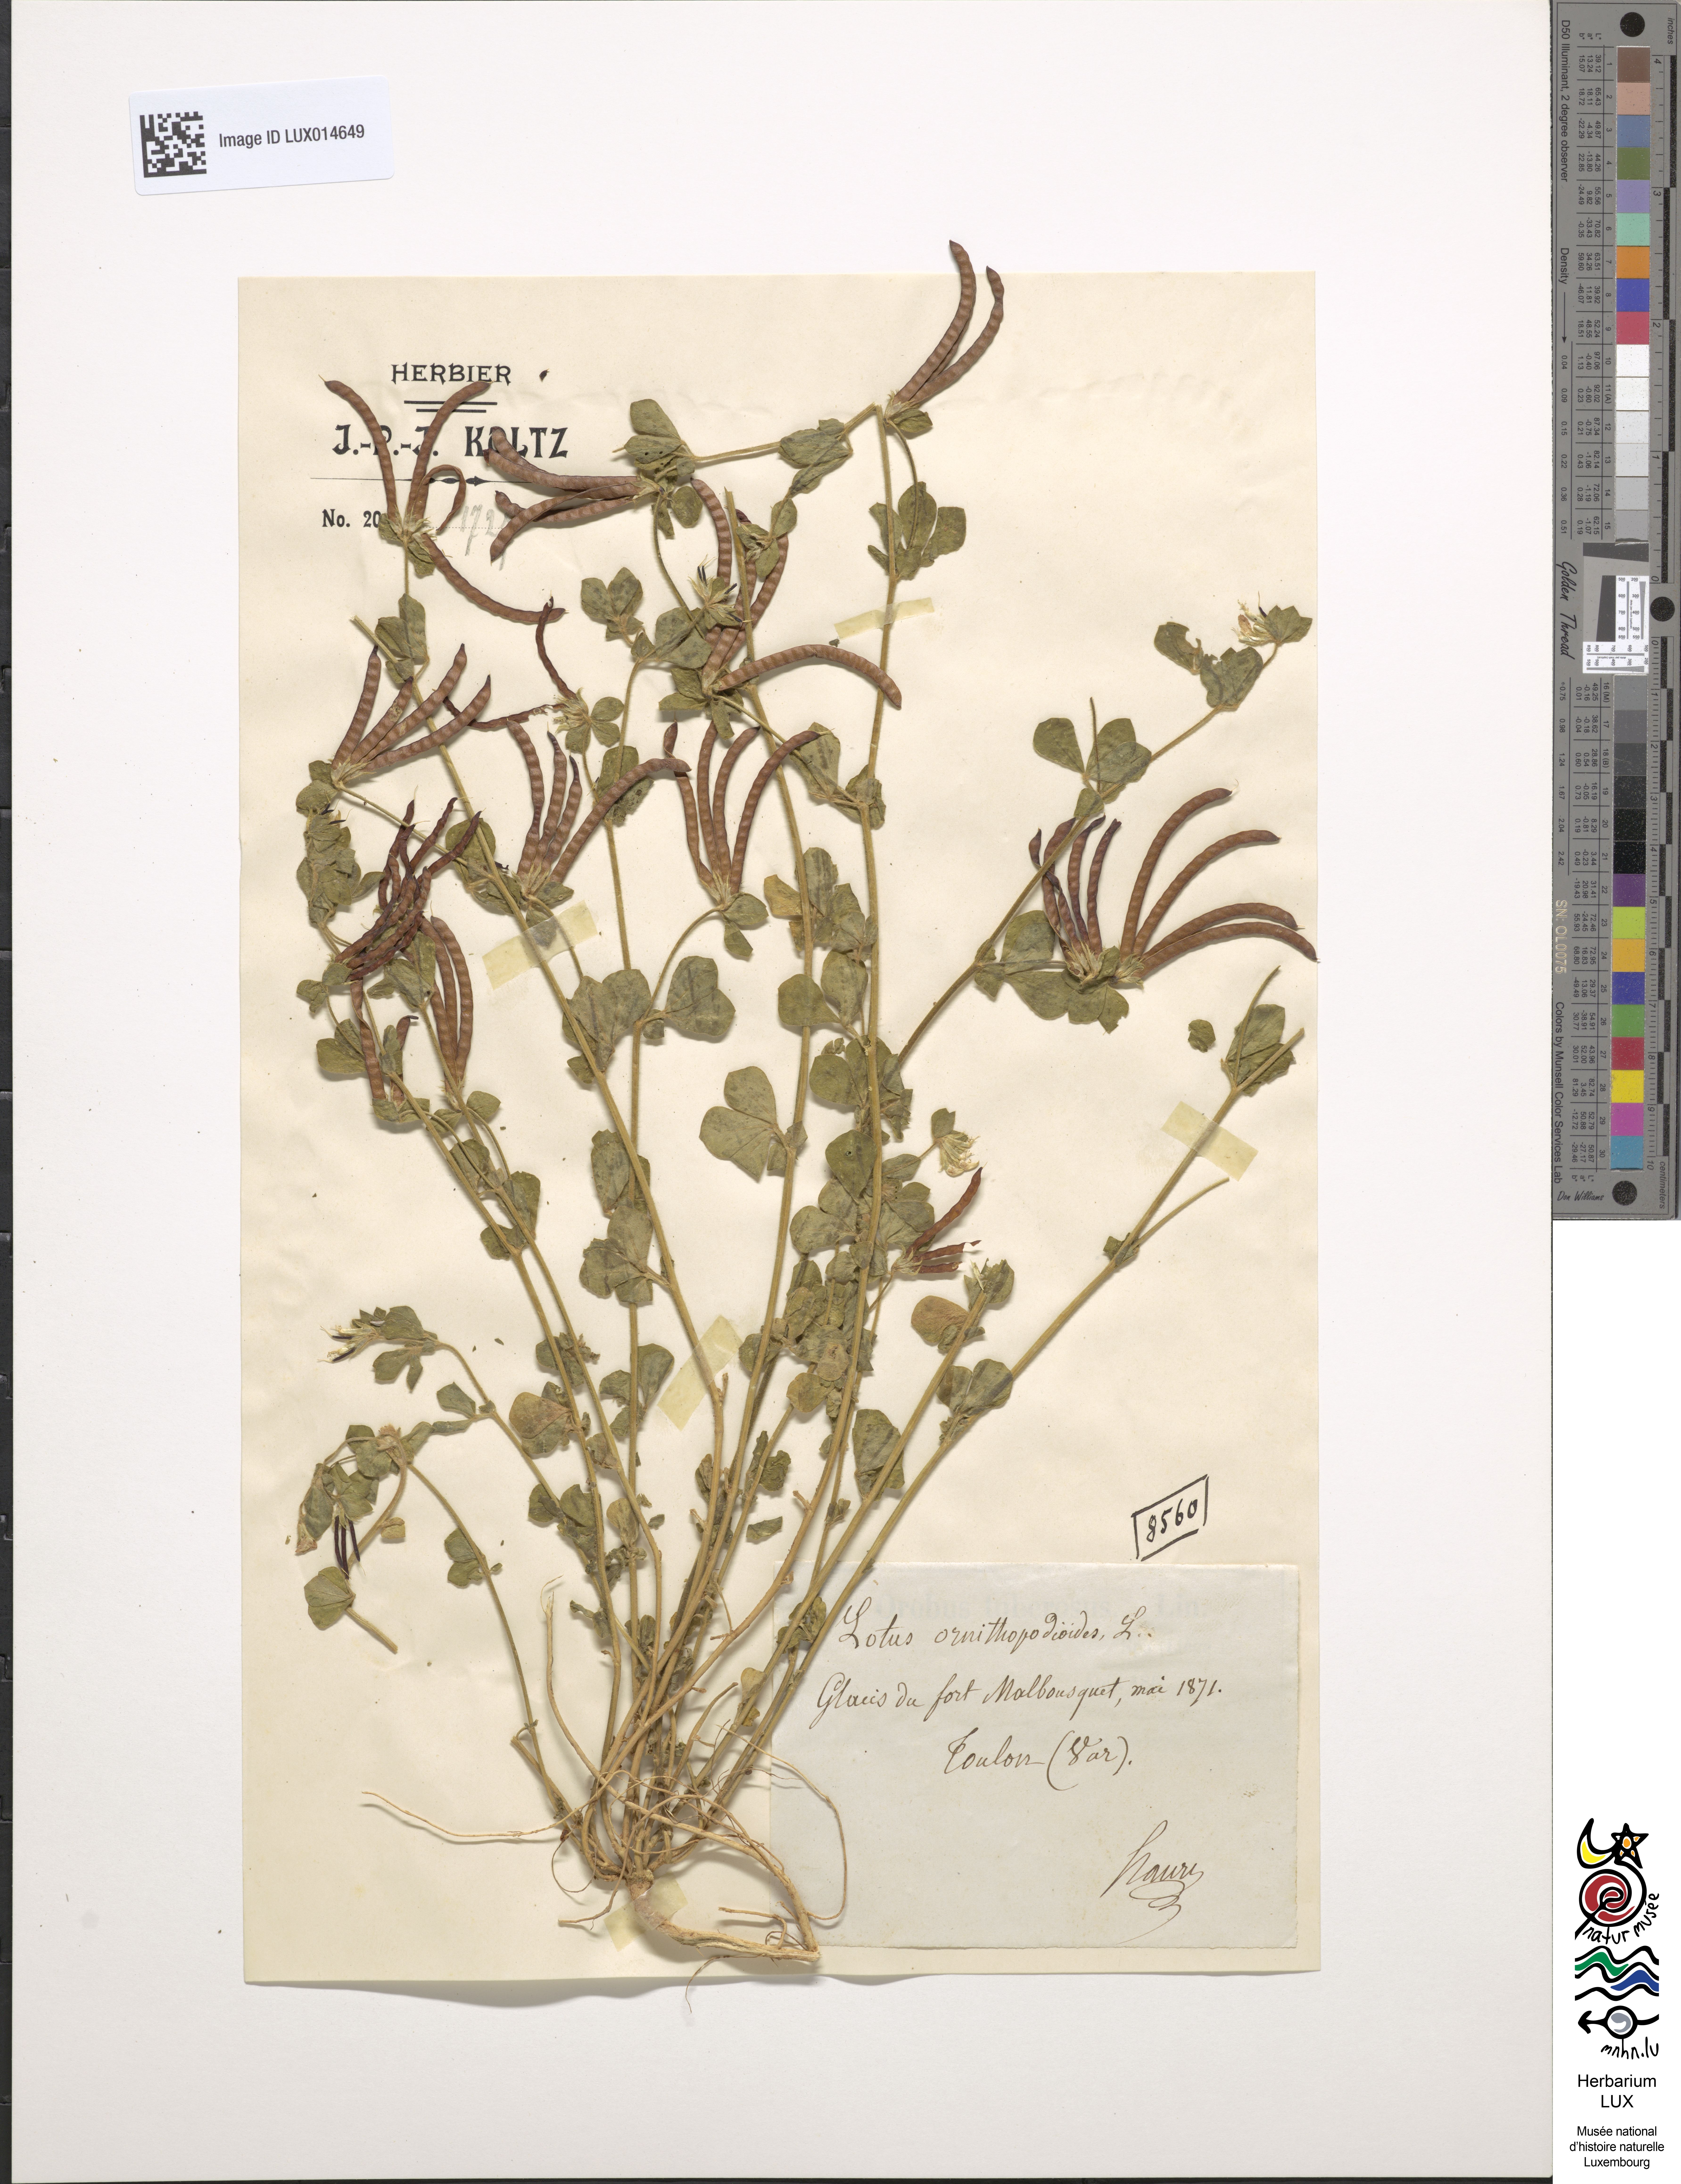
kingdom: Plantae
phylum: Tracheophyta
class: Magnoliopsida
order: Fabales
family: Fabaceae
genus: Lotus
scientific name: Lotus ornithopodioides
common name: Southern bird's-foot trefoil
